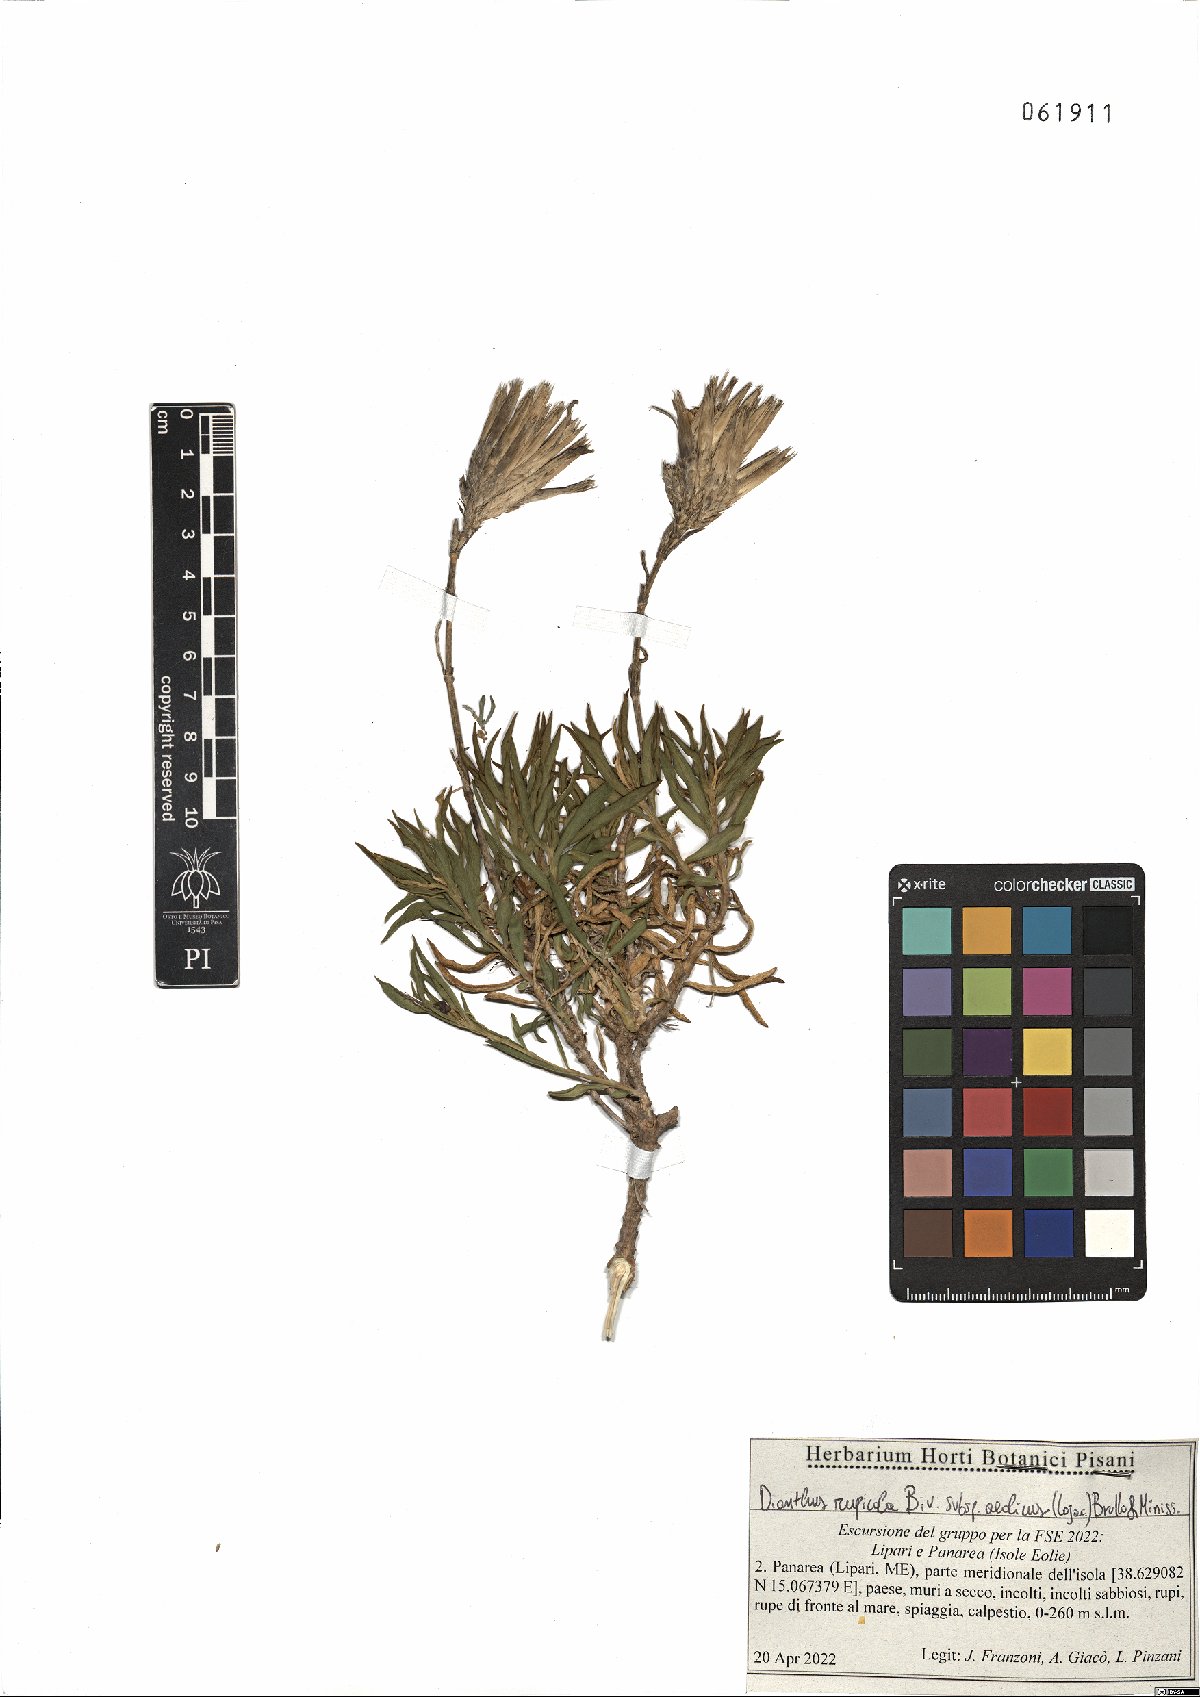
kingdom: Plantae
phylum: Tracheophyta
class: Magnoliopsida
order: Caryophyllales
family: Caryophyllaceae
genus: Dianthus
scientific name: Dianthus rupicola
